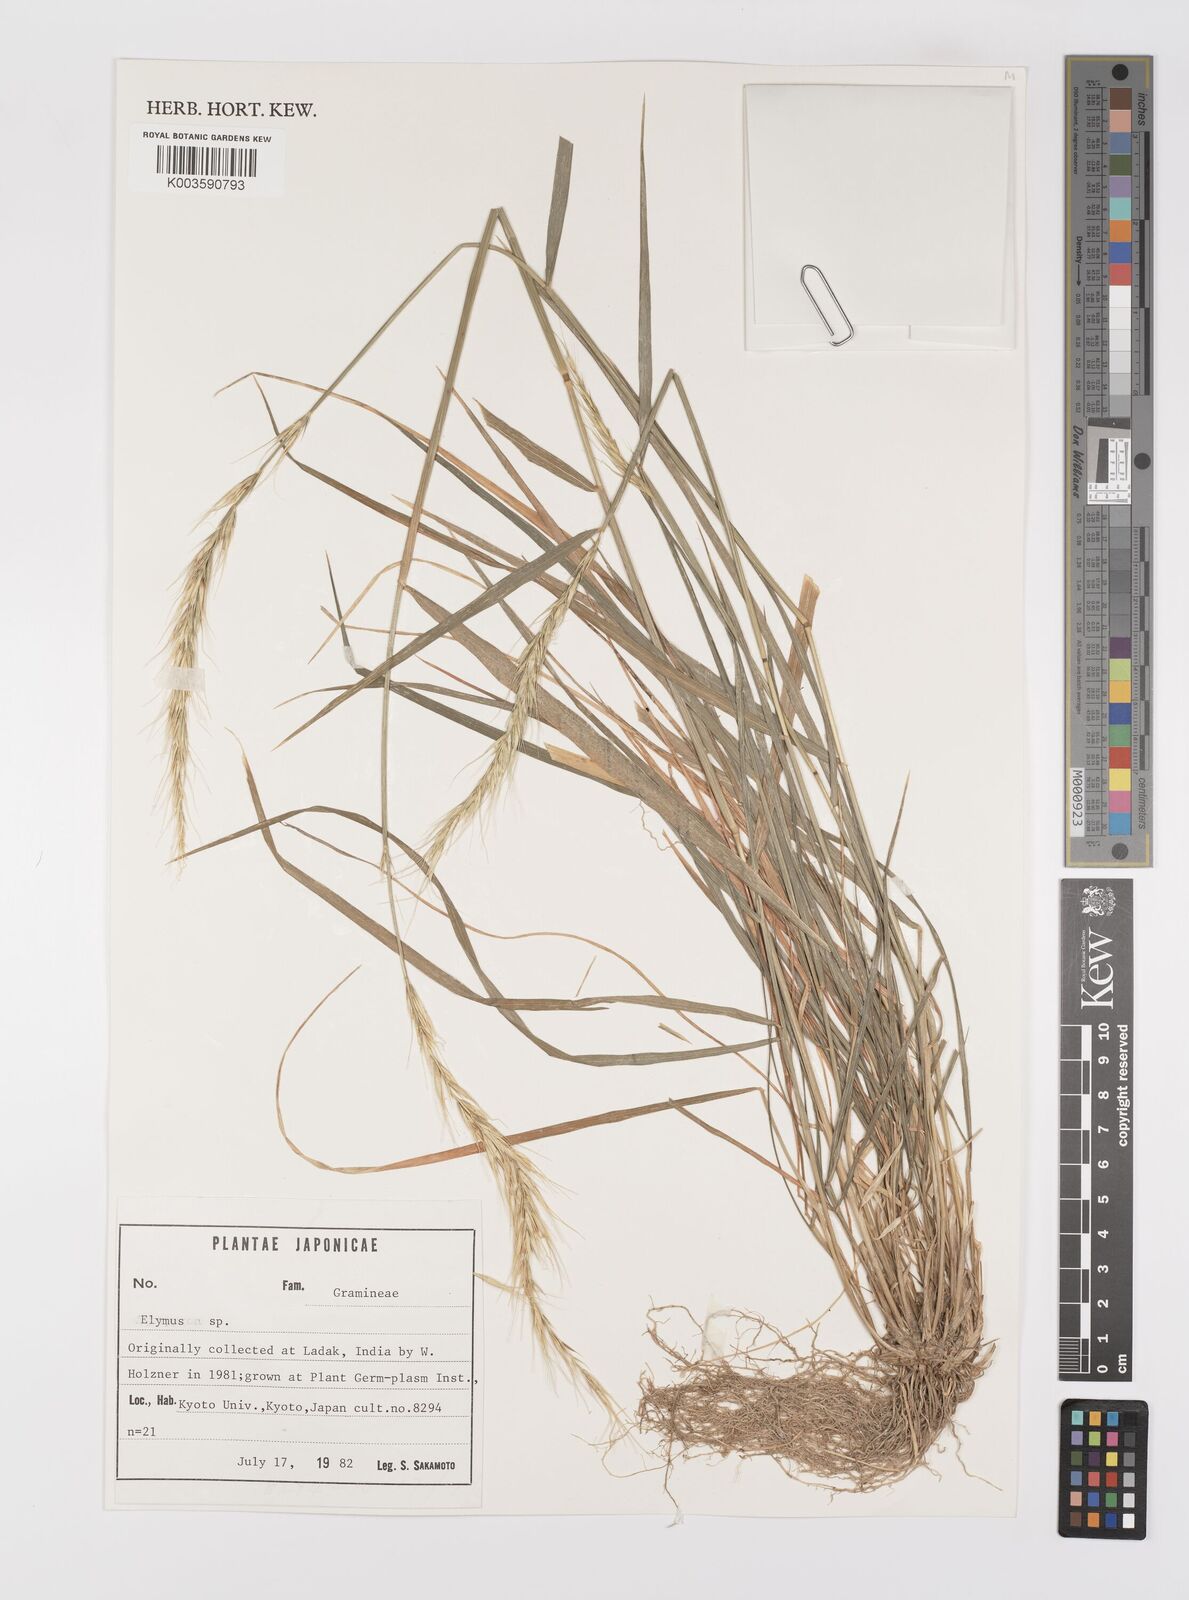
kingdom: Plantae
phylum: Tracheophyta
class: Liliopsida
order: Poales
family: Poaceae
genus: Elymus
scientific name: Elymus
